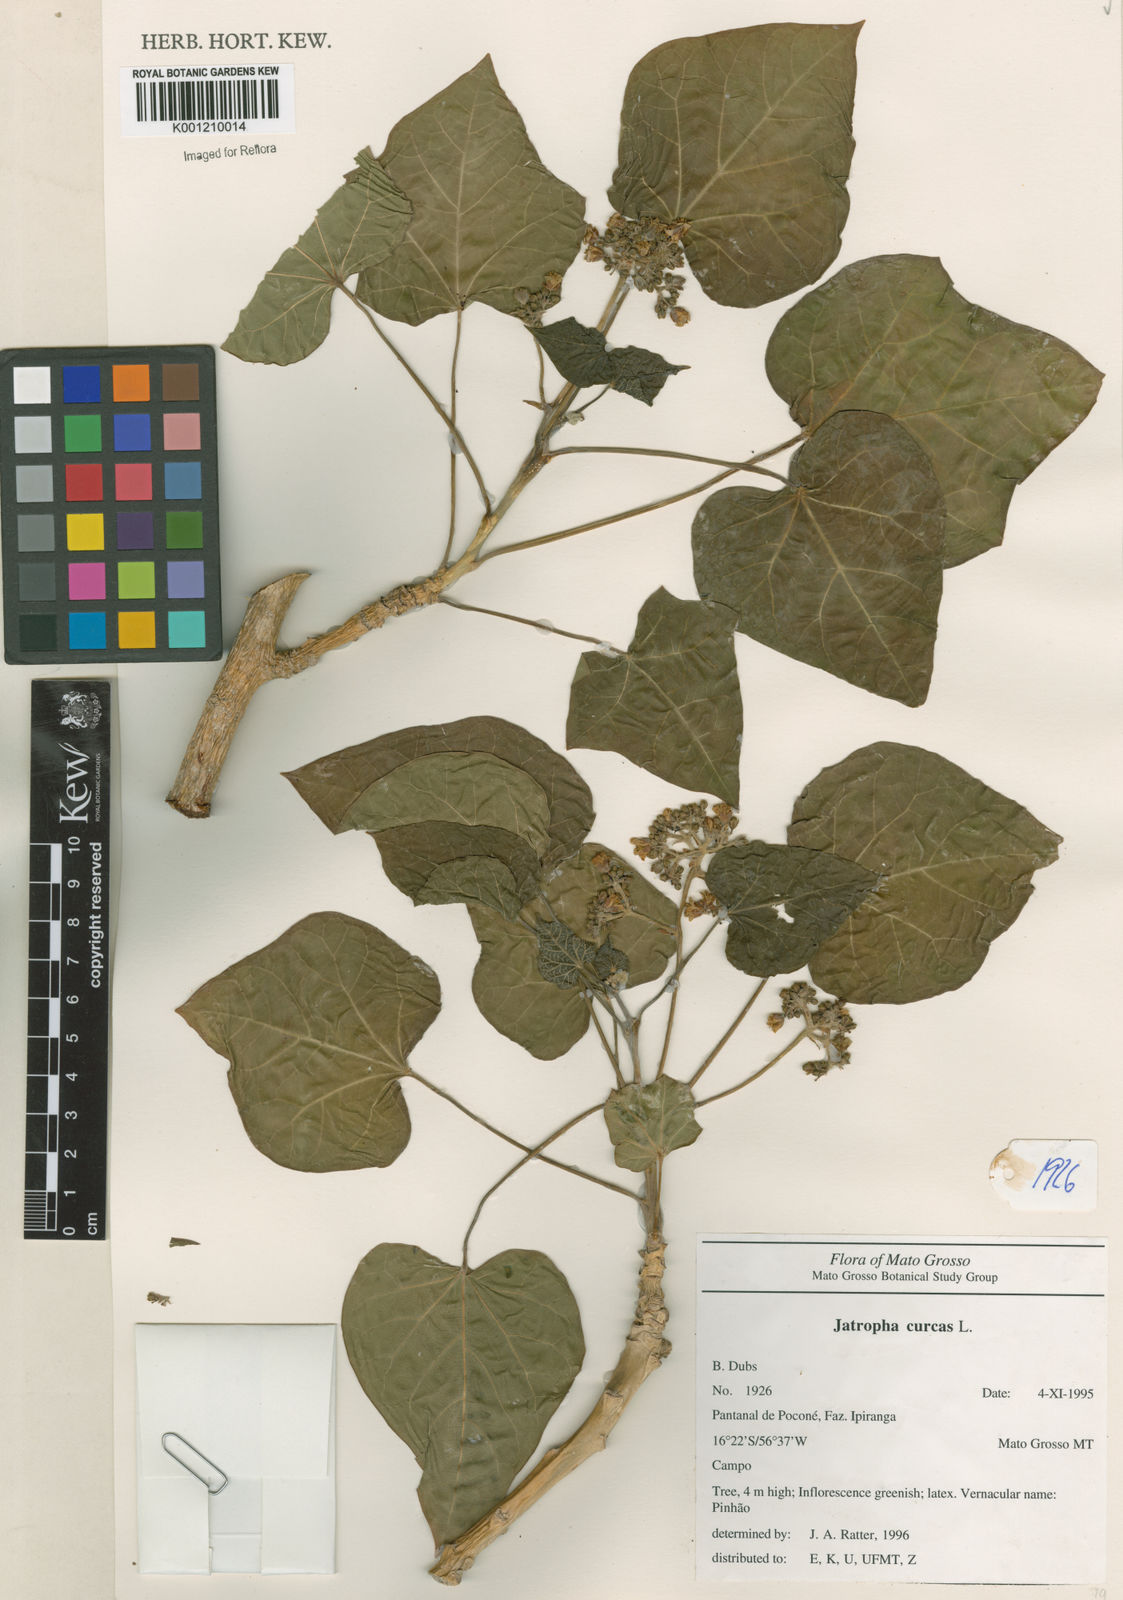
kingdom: Plantae
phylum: Tracheophyta
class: Magnoliopsida
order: Malpighiales
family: Euphorbiaceae
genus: Jatropha
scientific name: Jatropha curcas
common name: Barbados nut
